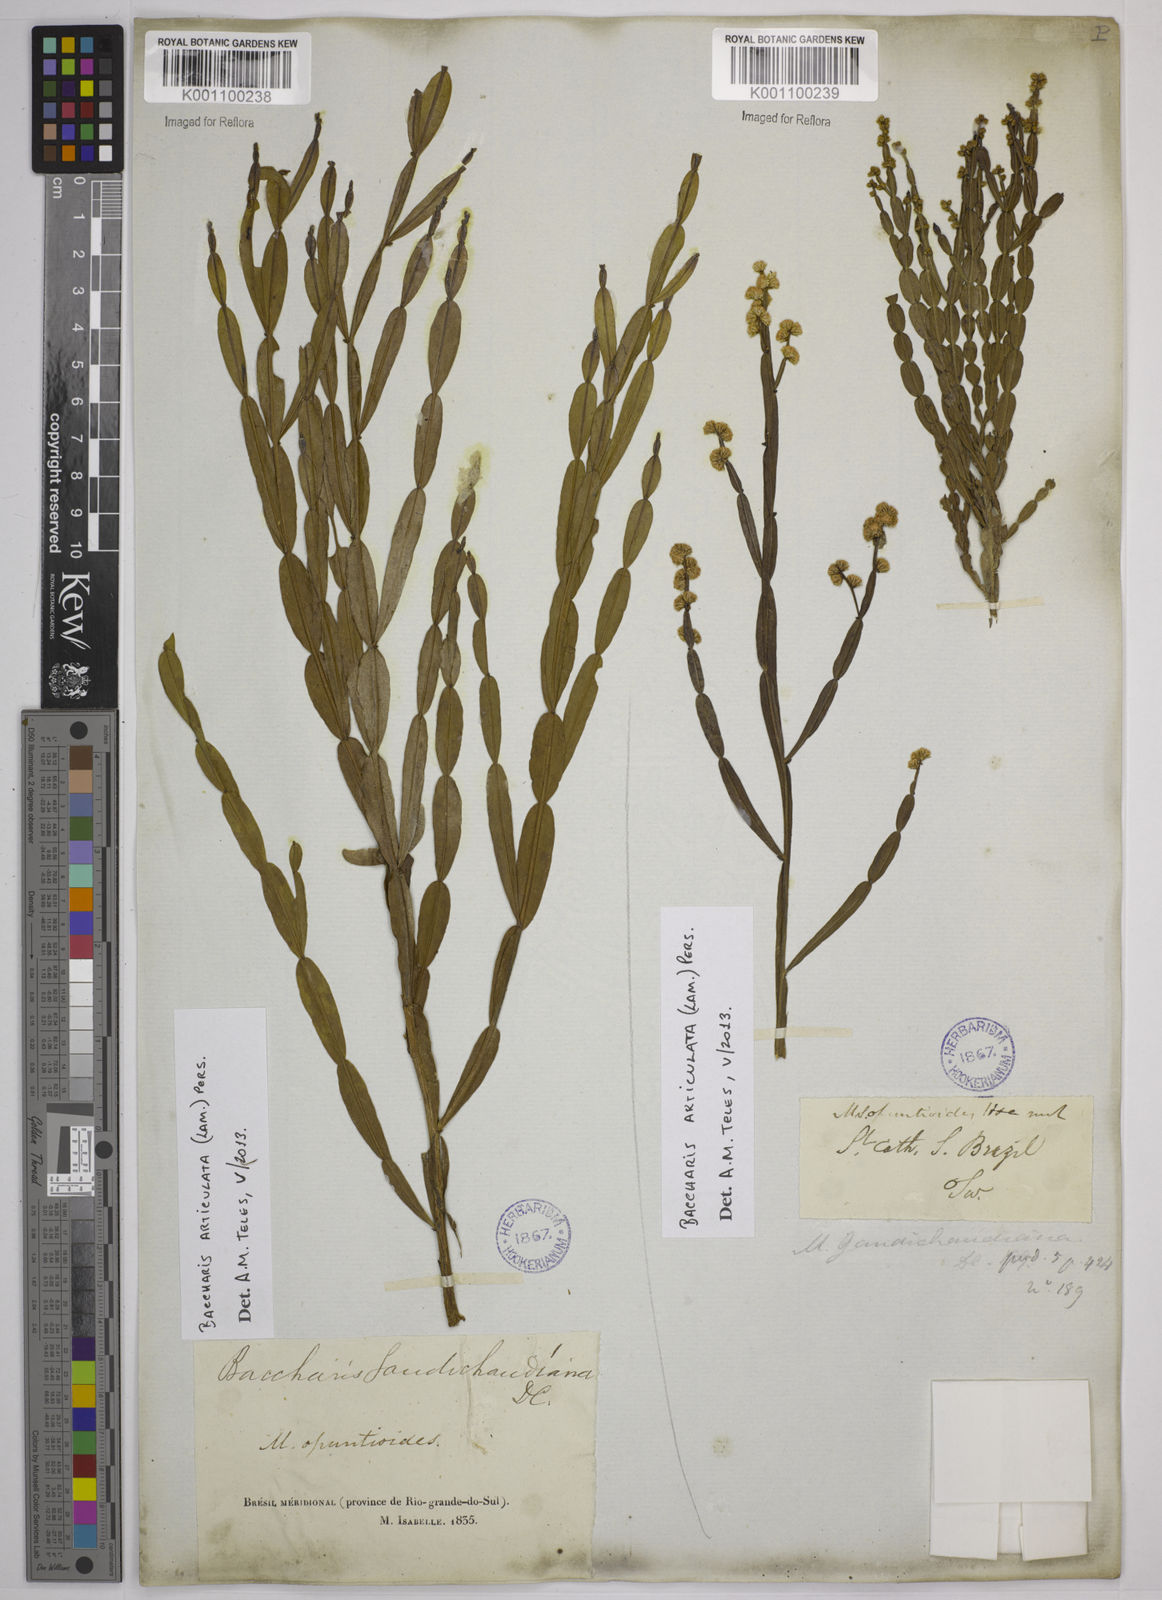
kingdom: Plantae
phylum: Tracheophyta
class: Magnoliopsida
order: Asterales
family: Asteraceae
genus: Baccharis
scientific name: Baccharis
